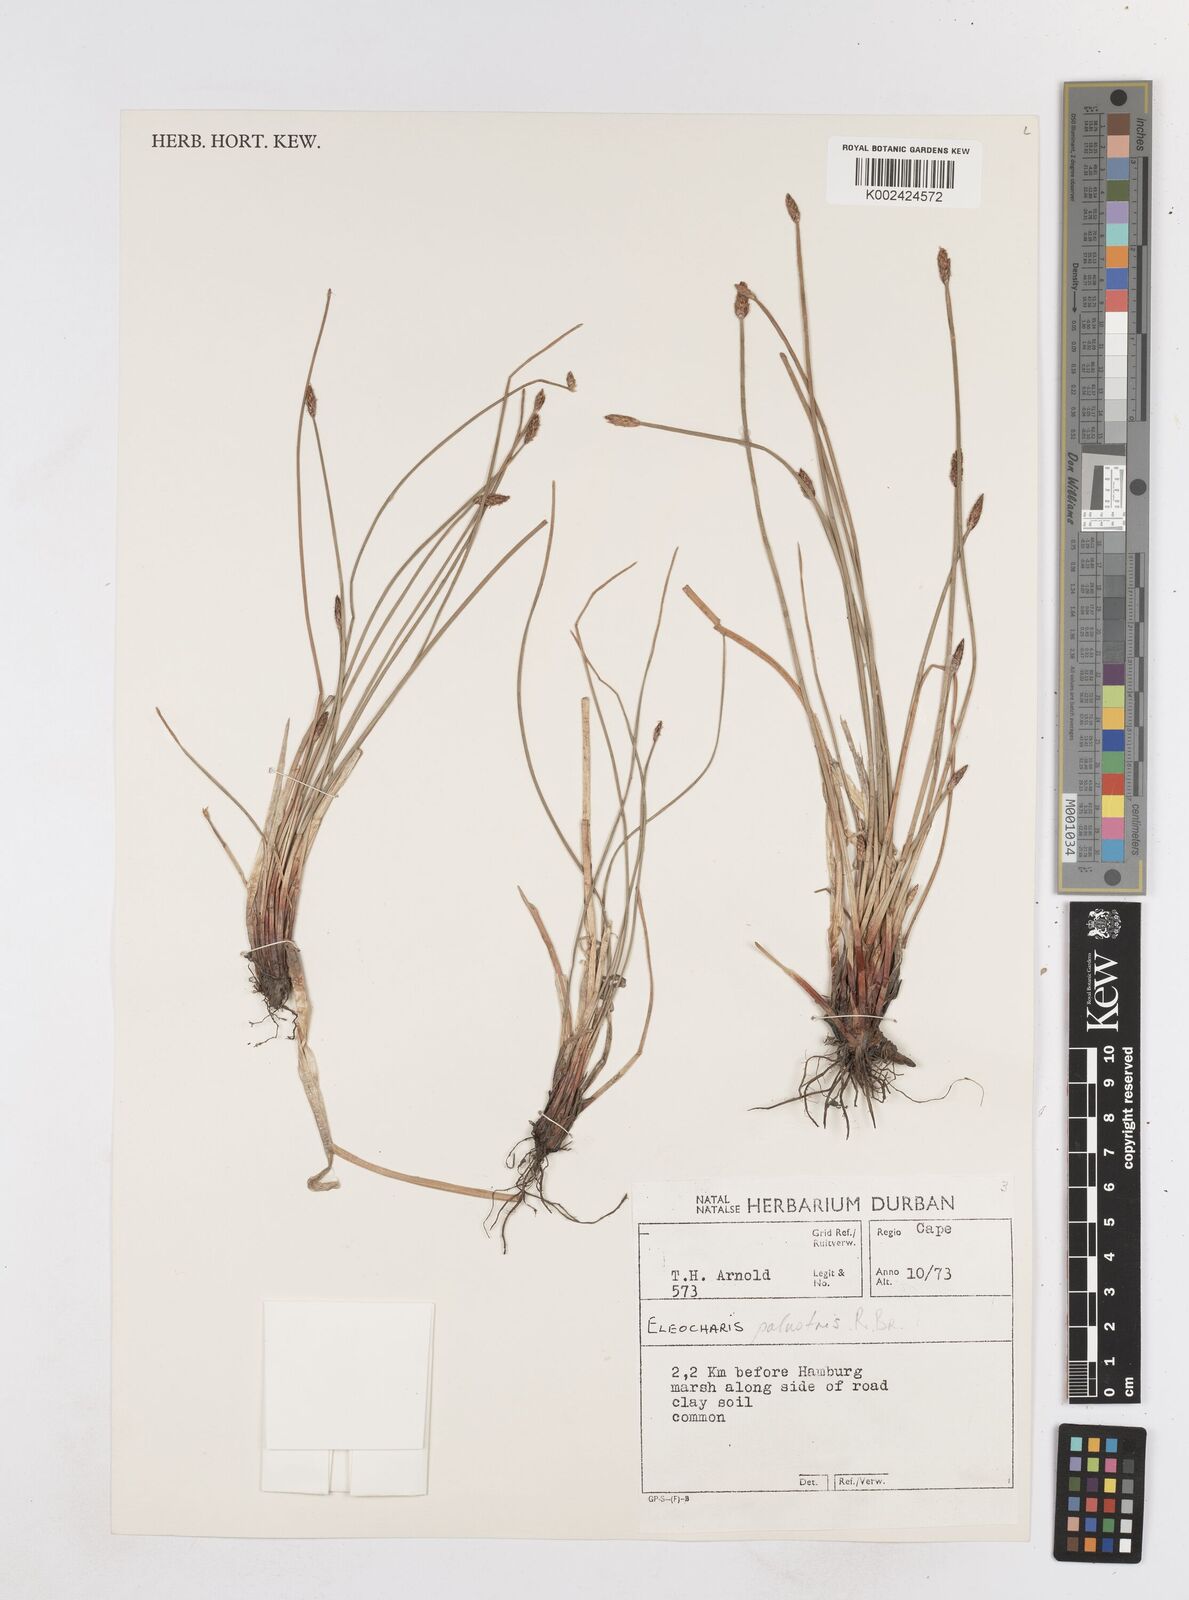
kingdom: Plantae
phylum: Tracheophyta
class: Liliopsida
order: Poales
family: Cyperaceae
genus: Eleocharis
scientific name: Eleocharis palustris
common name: Common spike-rush
